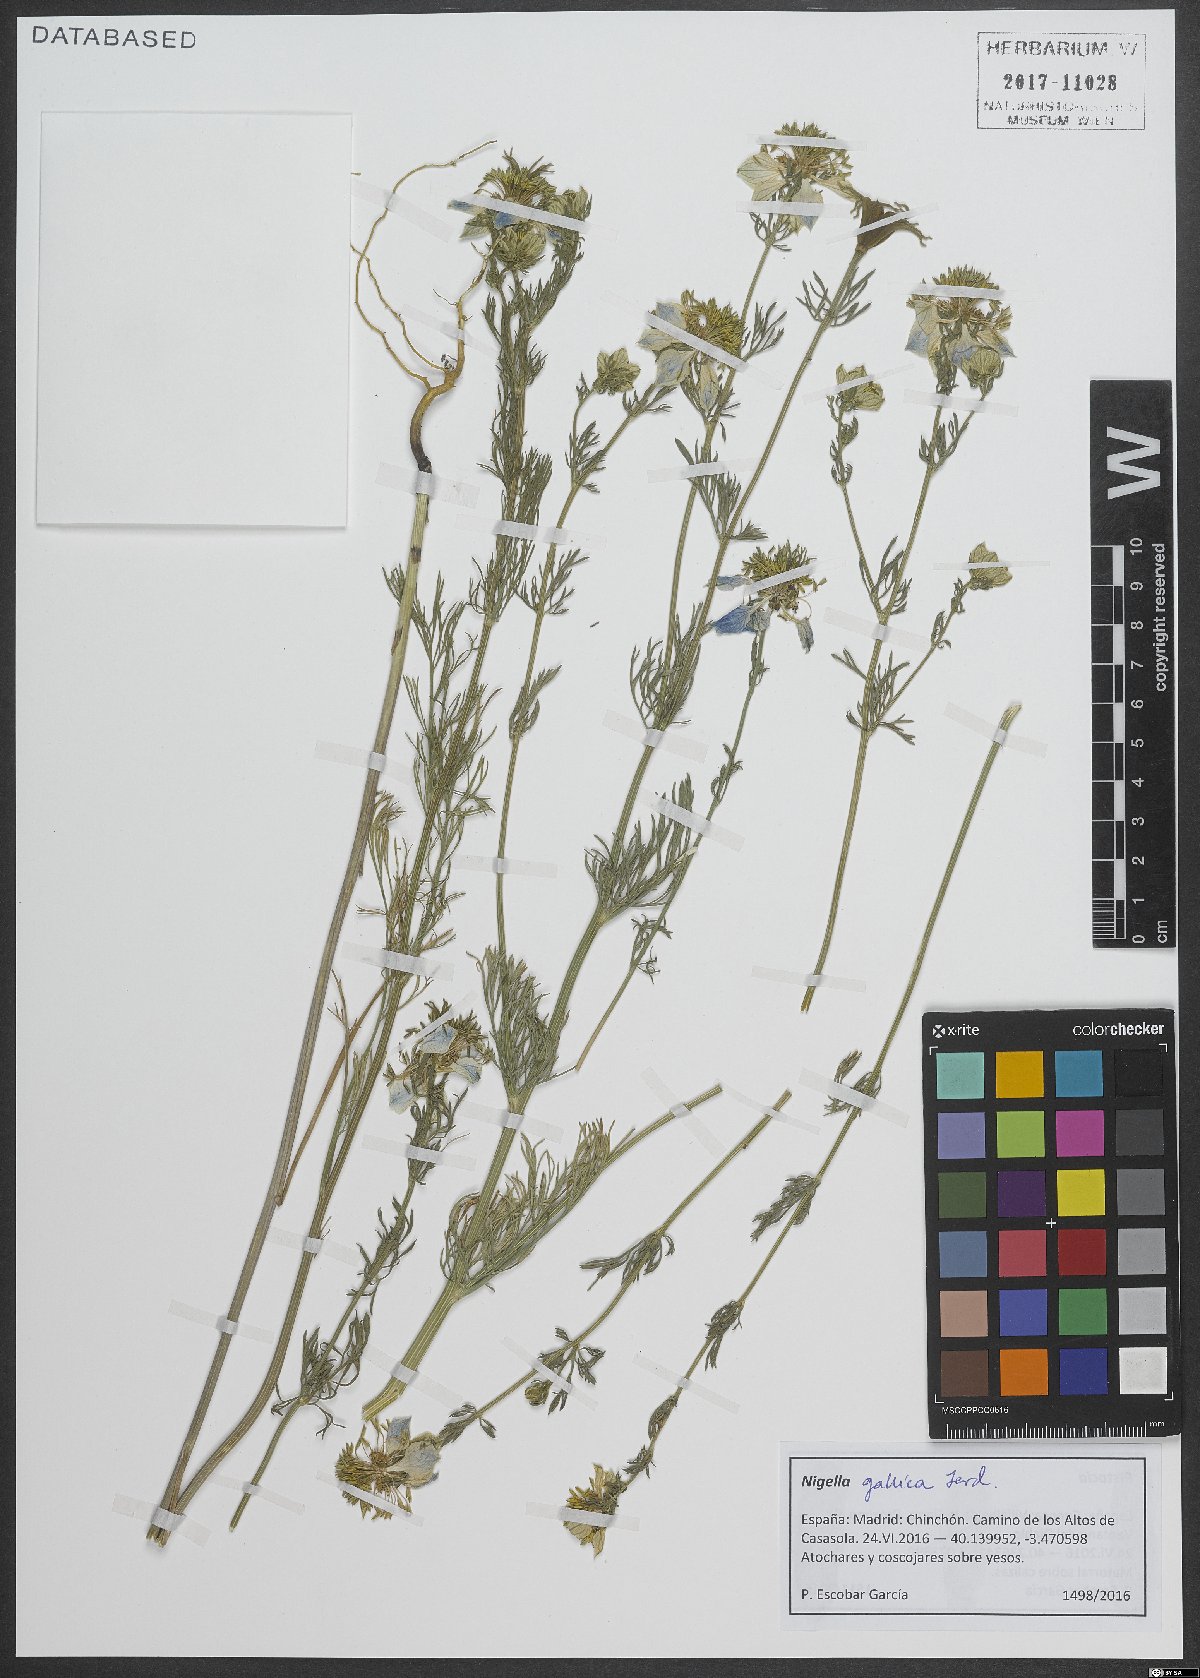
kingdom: Plantae
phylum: Tracheophyta
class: Magnoliopsida
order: Ranunculales
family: Ranunculaceae
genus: Nigella
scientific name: Nigella gallica
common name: Pale fennel-flower
